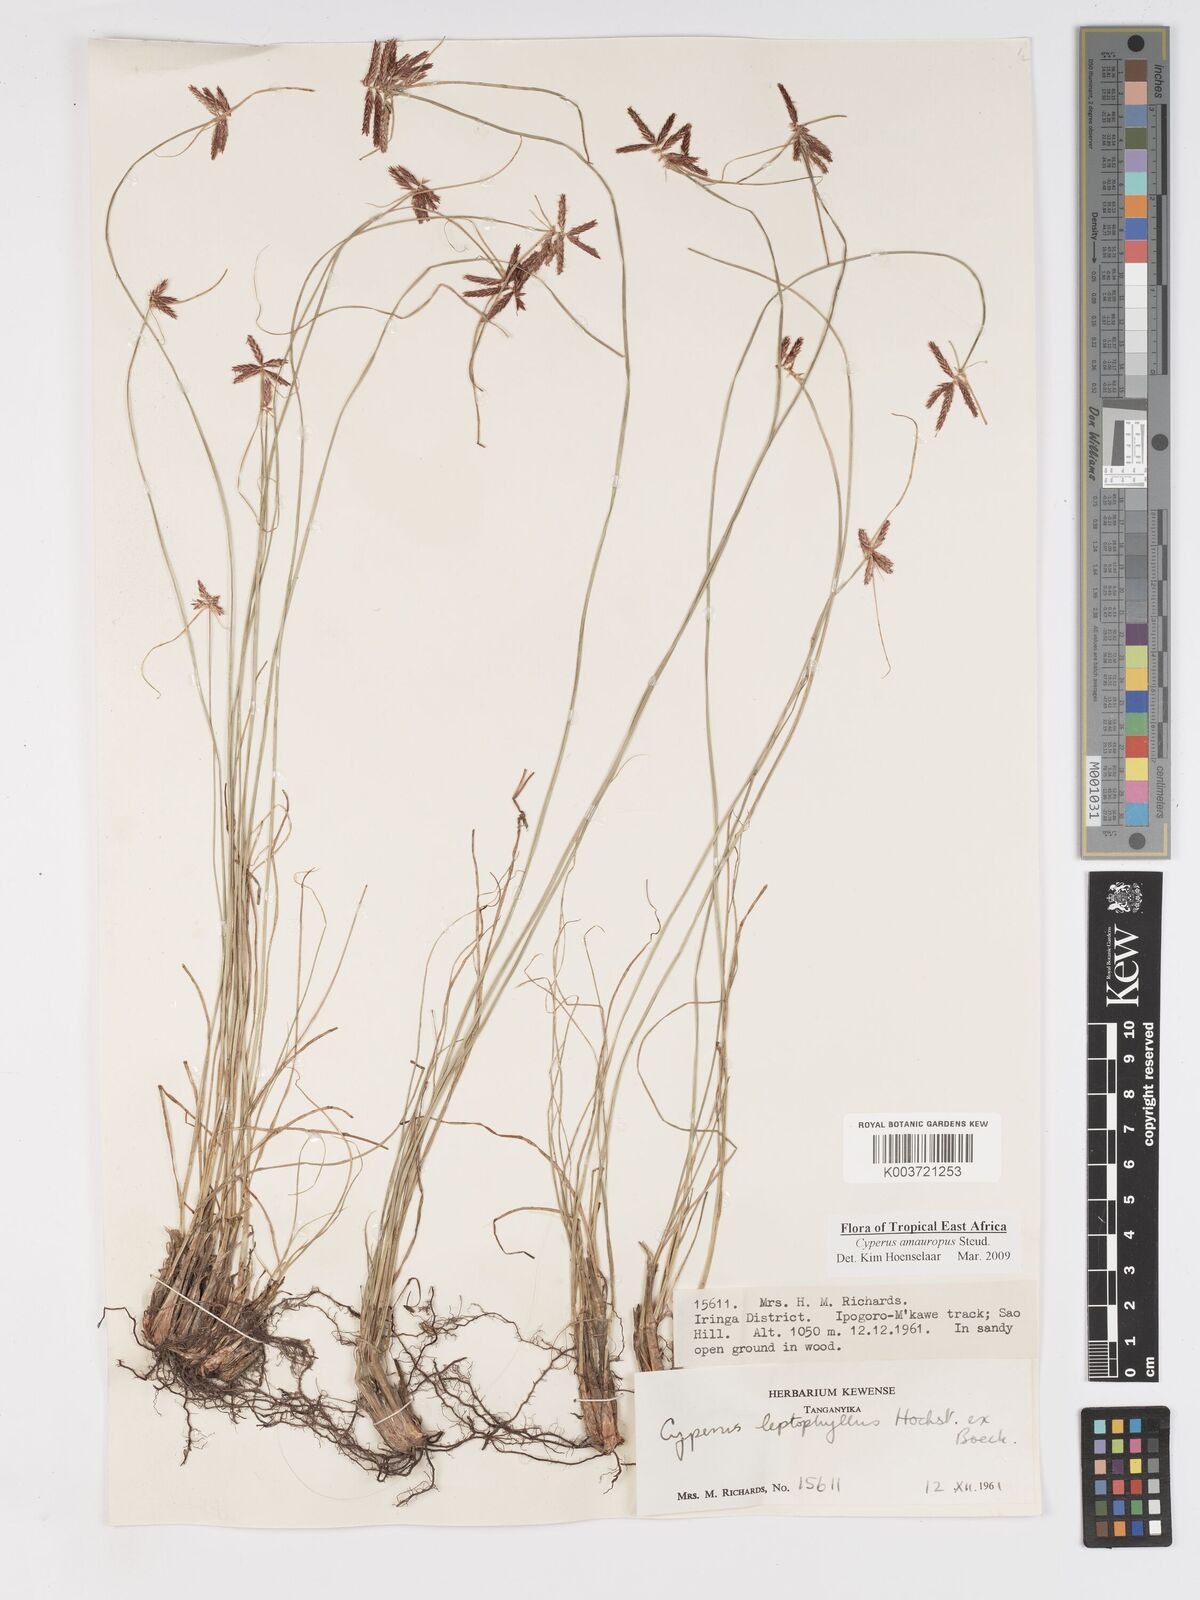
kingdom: Plantae
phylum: Tracheophyta
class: Liliopsida
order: Poales
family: Cyperaceae
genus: Cyperus
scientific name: Cyperus amauropus
